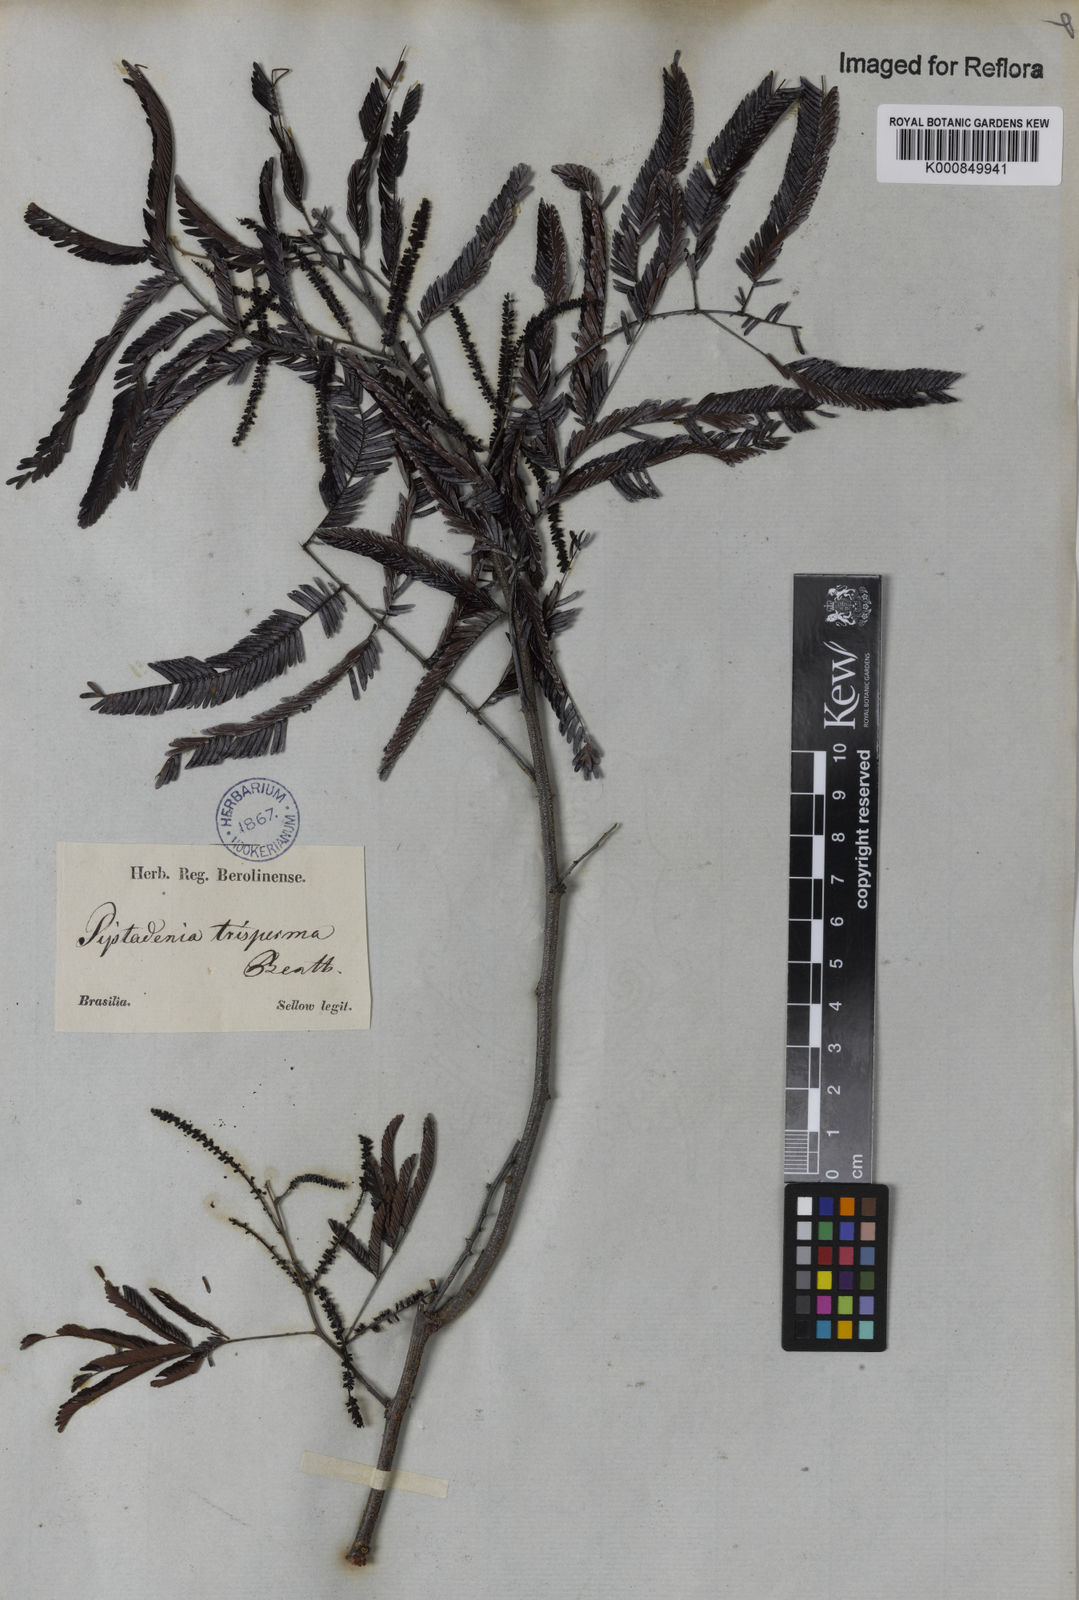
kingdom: Plantae
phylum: Tracheophyta
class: Magnoliopsida
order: Fabales
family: Fabaceae
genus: Piptadenia
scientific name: Piptadenia trisperma
